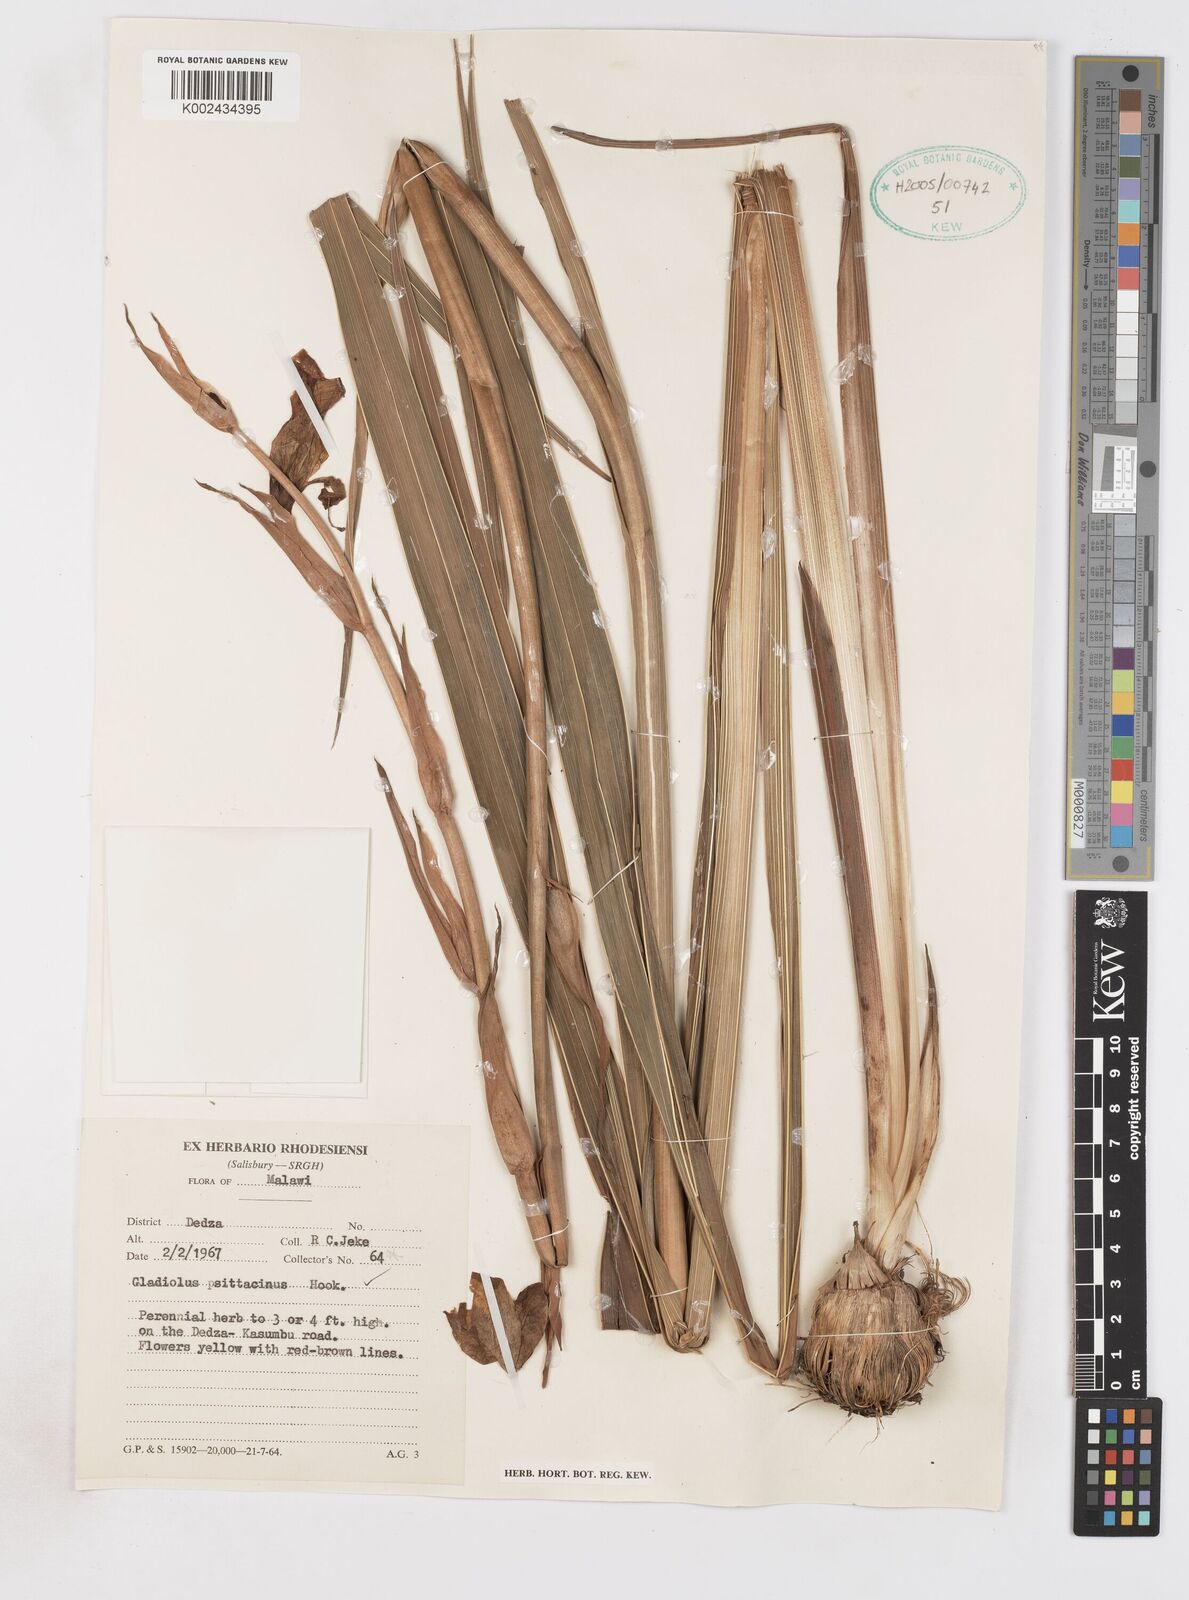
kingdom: Plantae
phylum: Tracheophyta
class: Liliopsida
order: Asparagales
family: Iridaceae
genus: Gladiolus
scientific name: Gladiolus dalenii
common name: Cornflag
